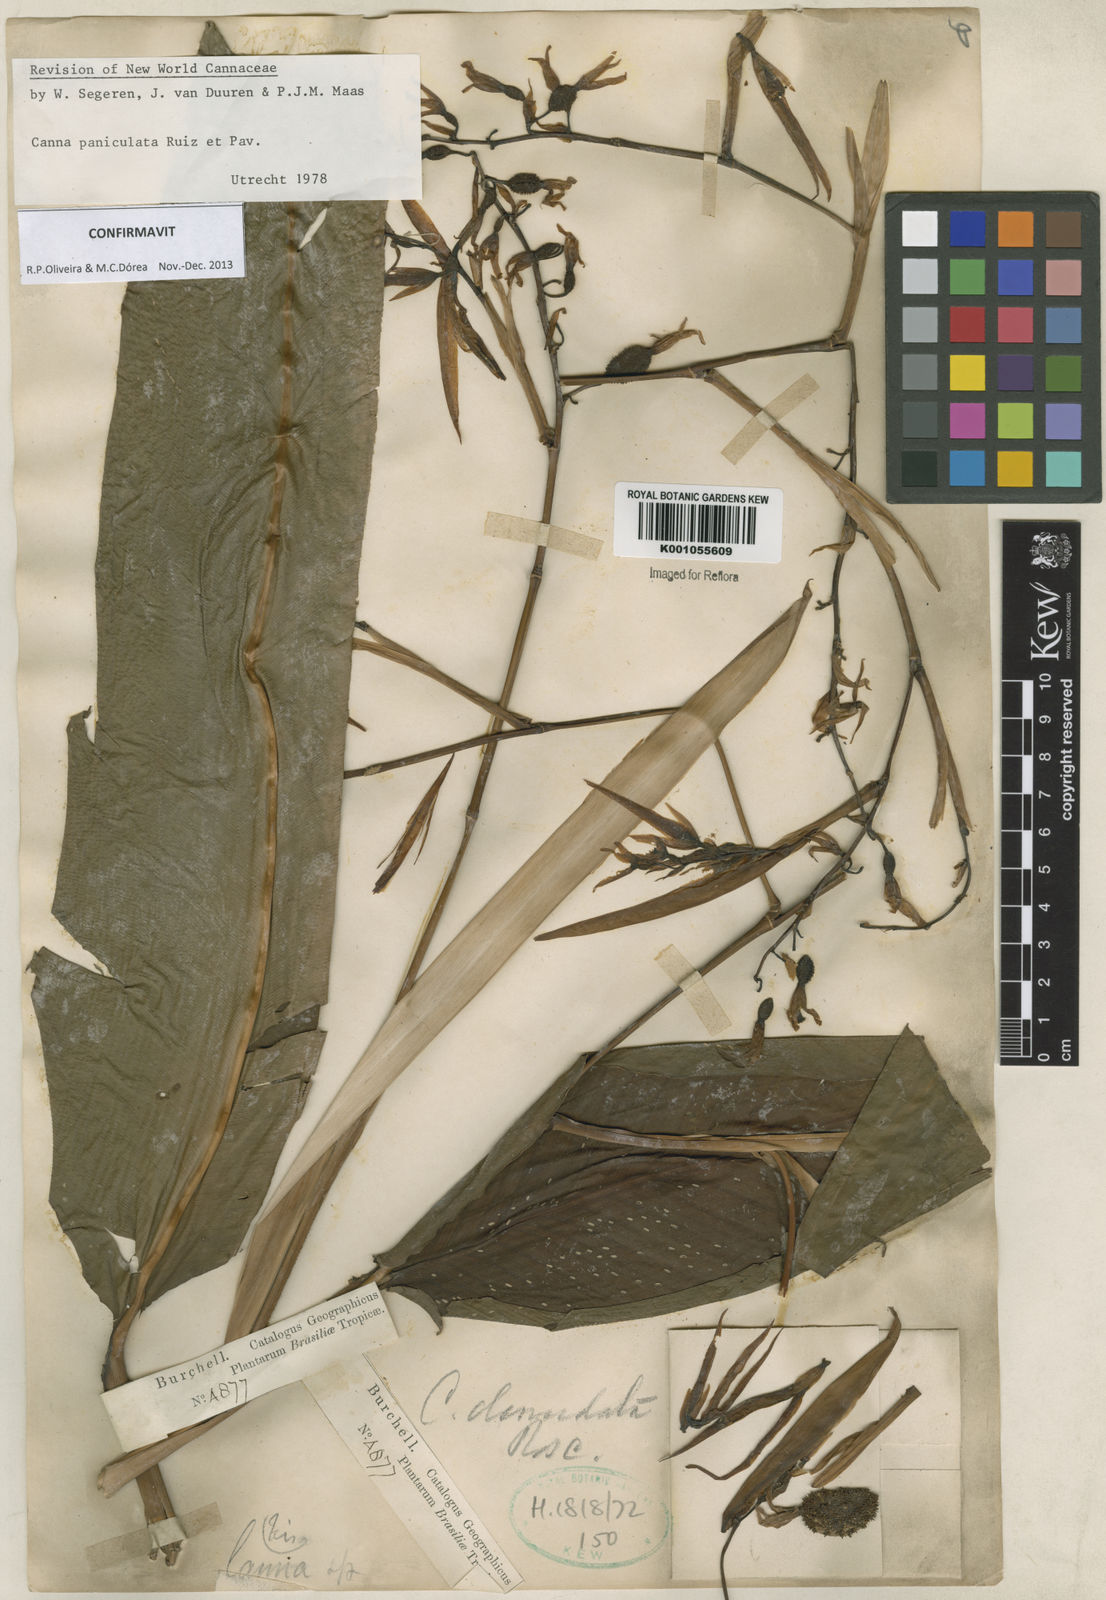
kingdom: Plantae
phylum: Tracheophyta
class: Liliopsida
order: Zingiberales
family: Cannaceae
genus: Canna
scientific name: Canna paniculata
